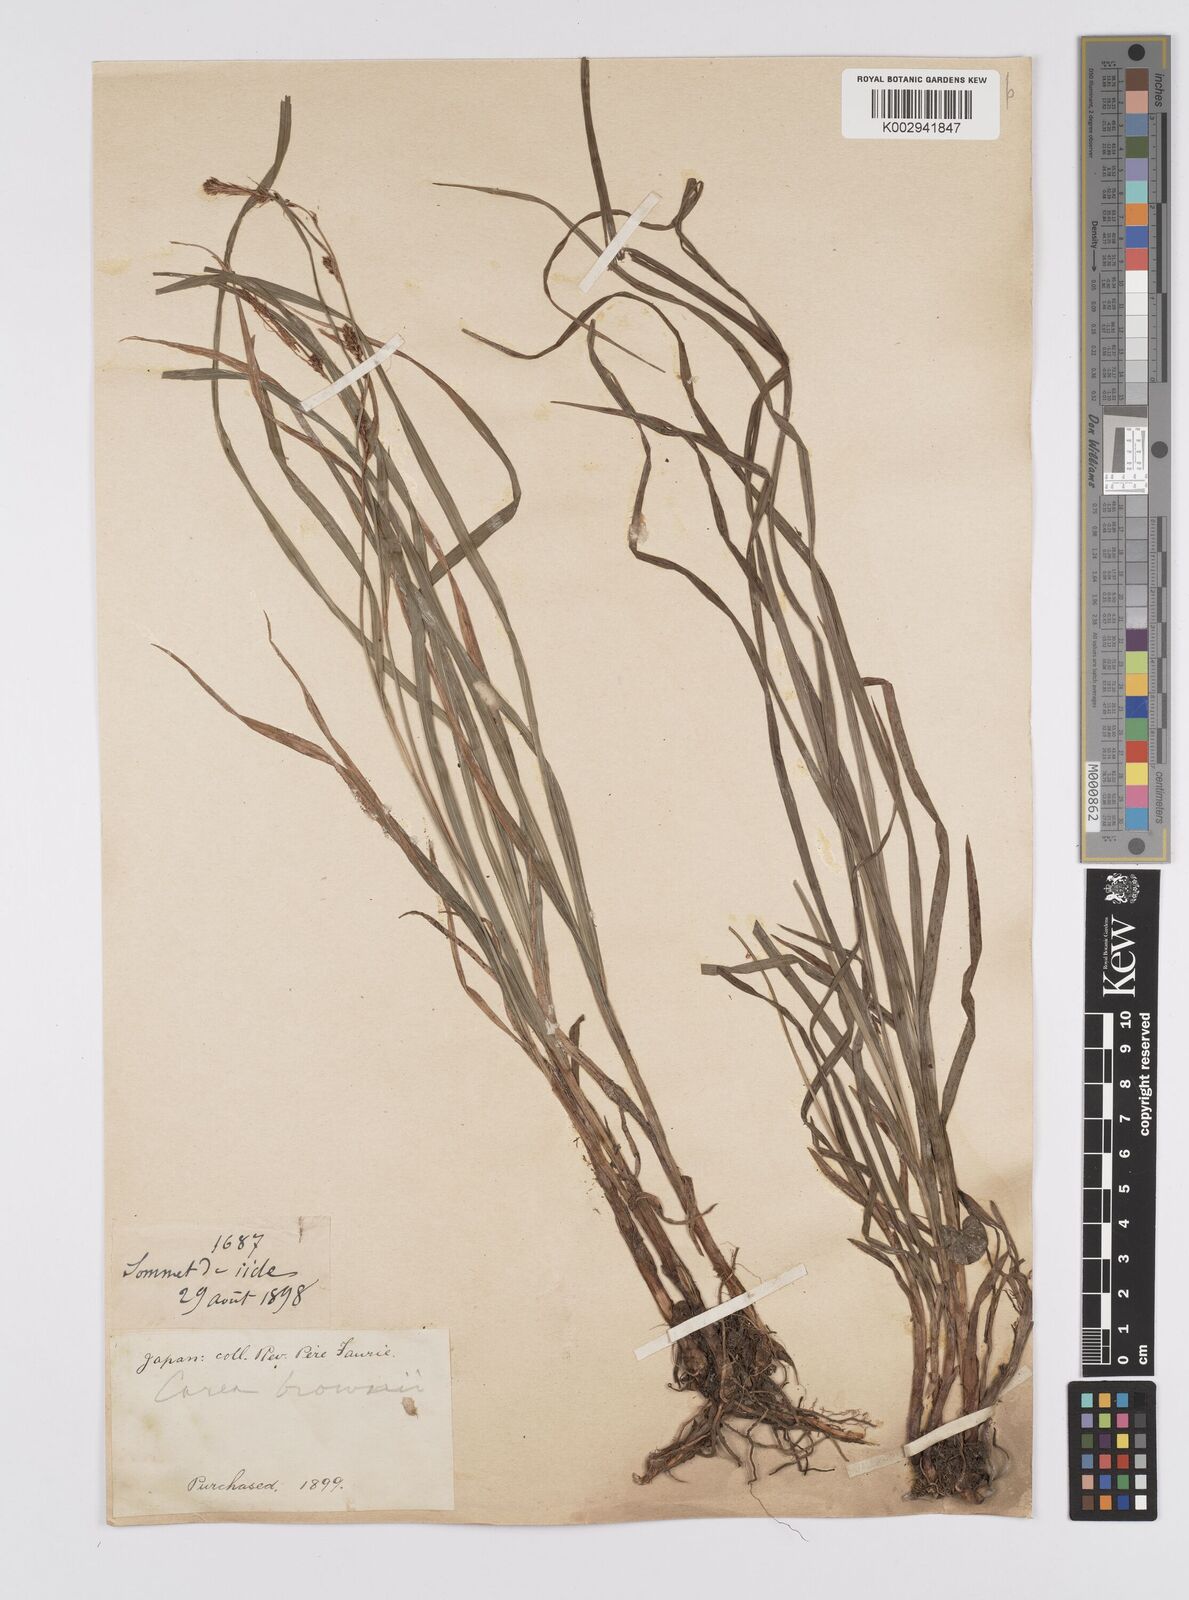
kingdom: Plantae
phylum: Tracheophyta
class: Liliopsida
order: Poales
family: Cyperaceae
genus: Carex
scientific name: Carex brownii
